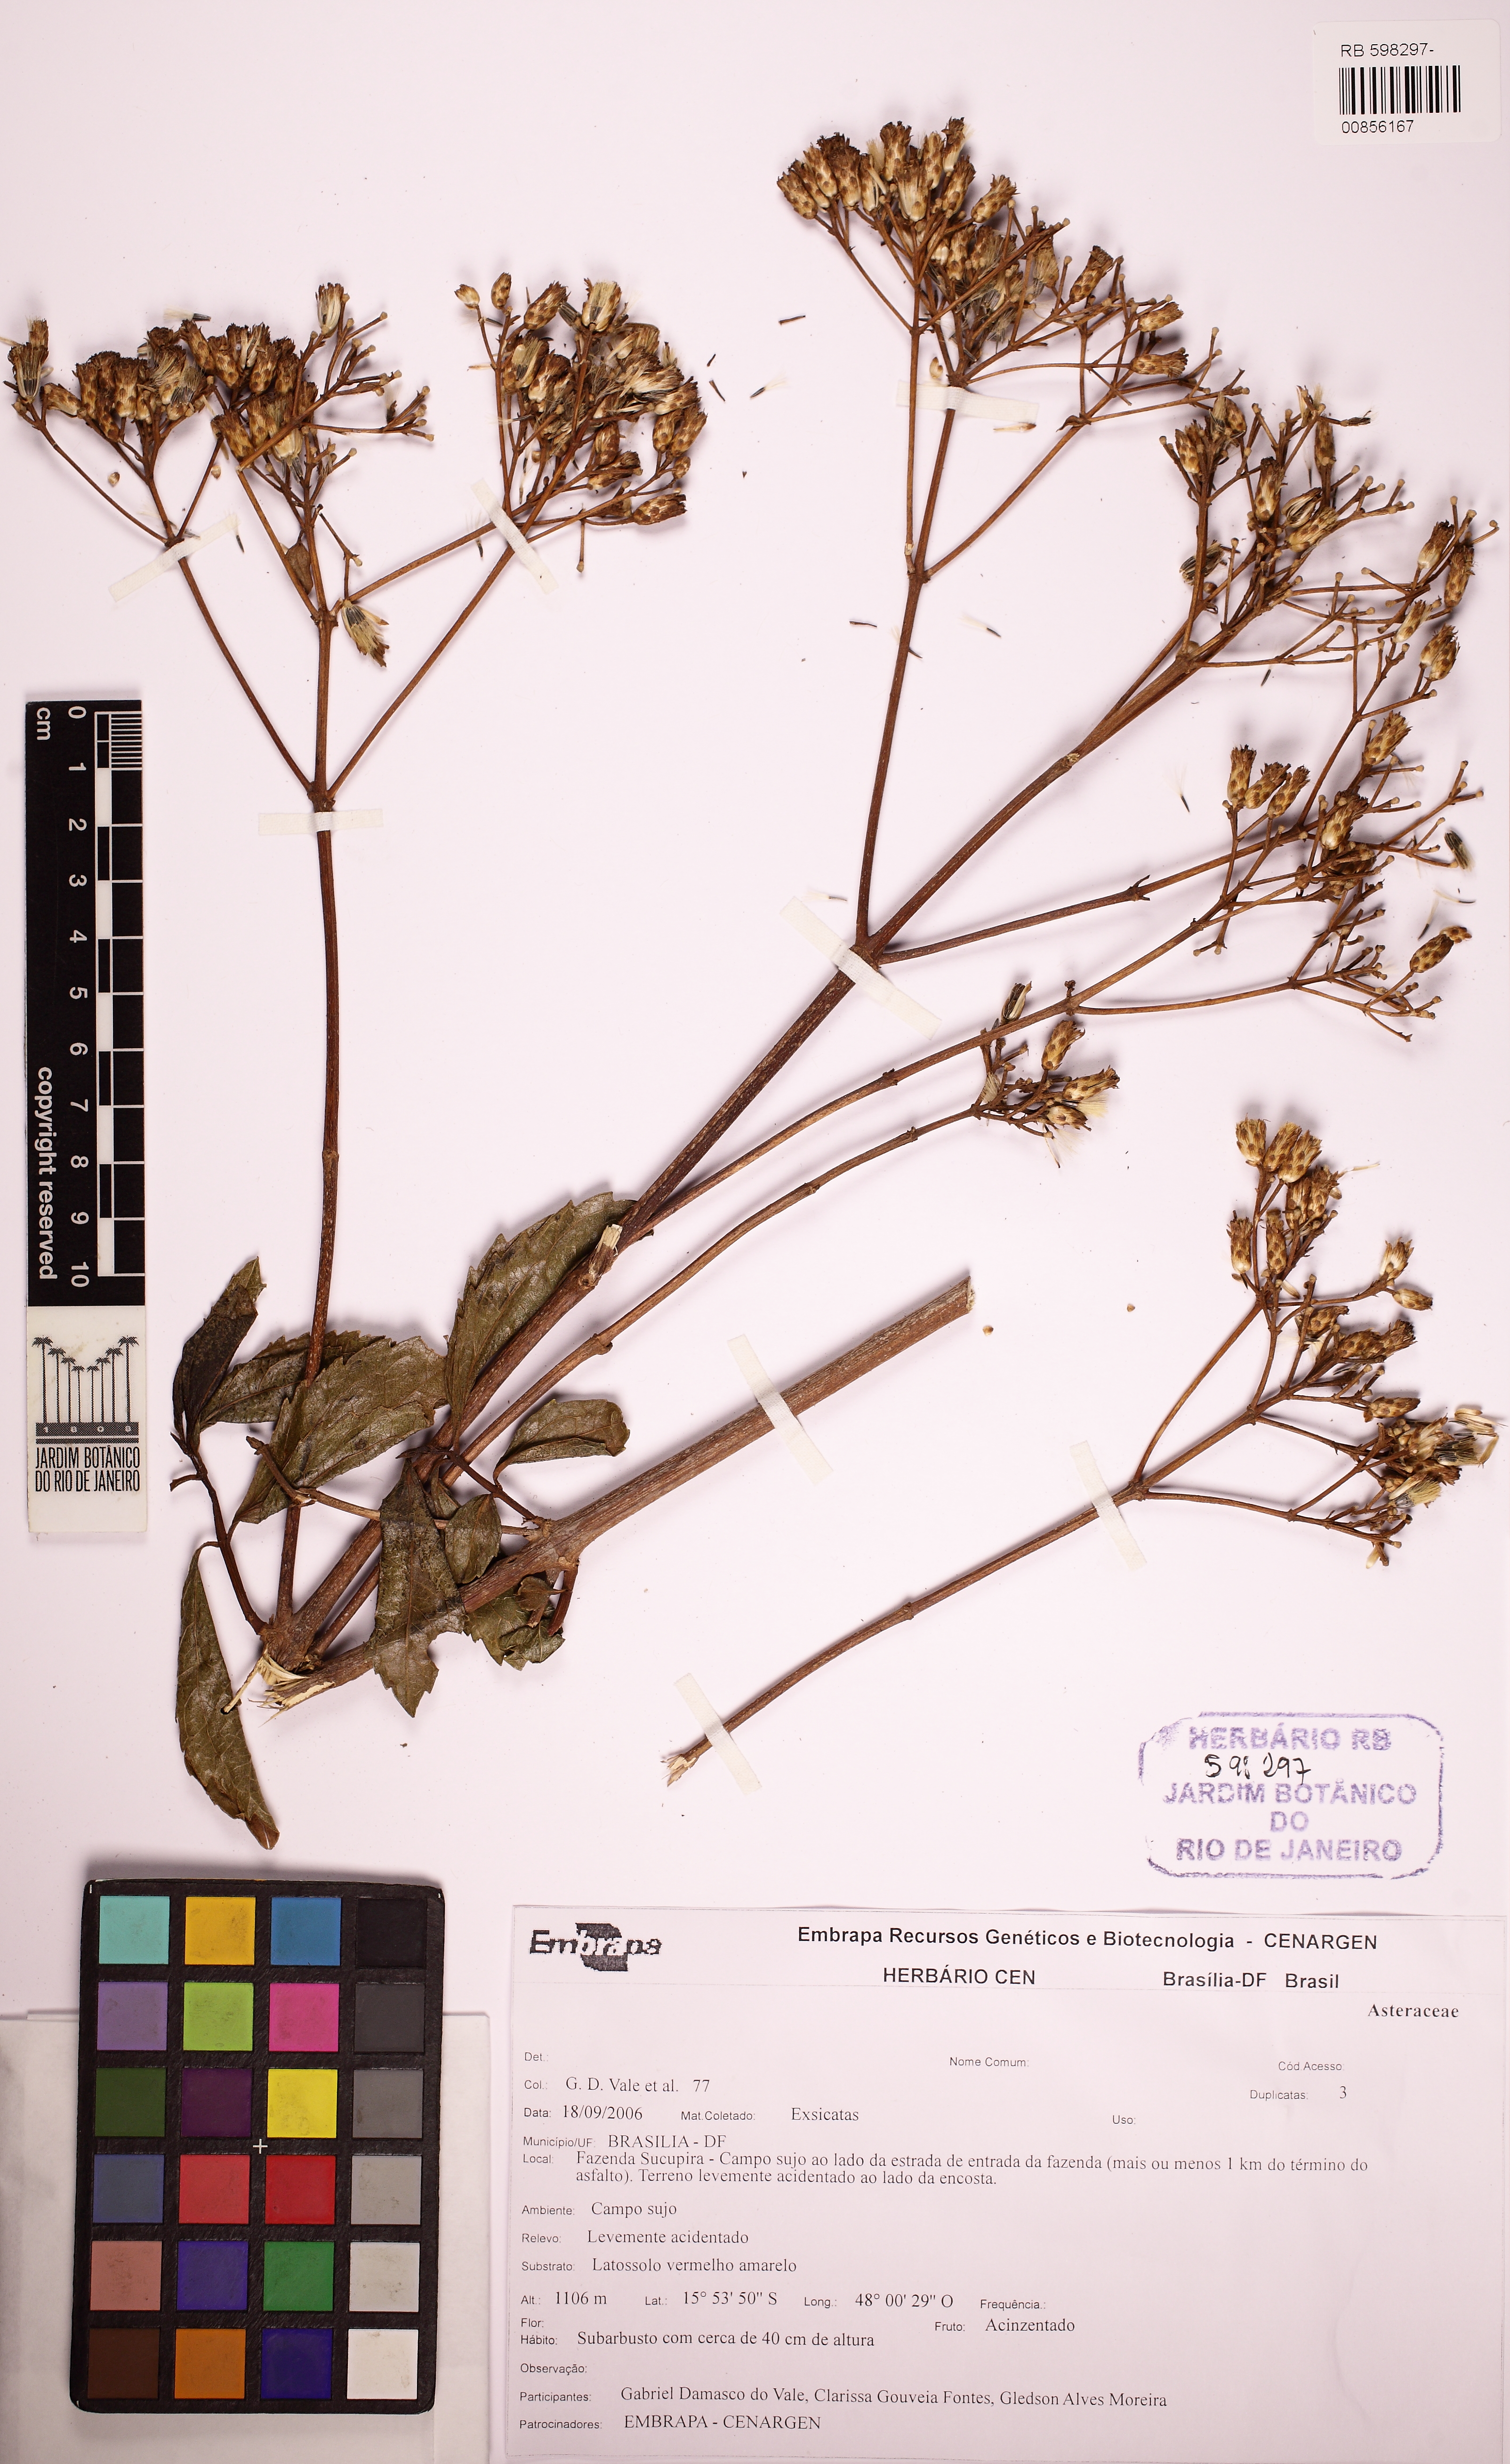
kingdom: Plantae
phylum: Tracheophyta
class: Magnoliopsida
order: Asterales
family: Asteraceae
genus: Chromolaena
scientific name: Chromolaena laevigata
